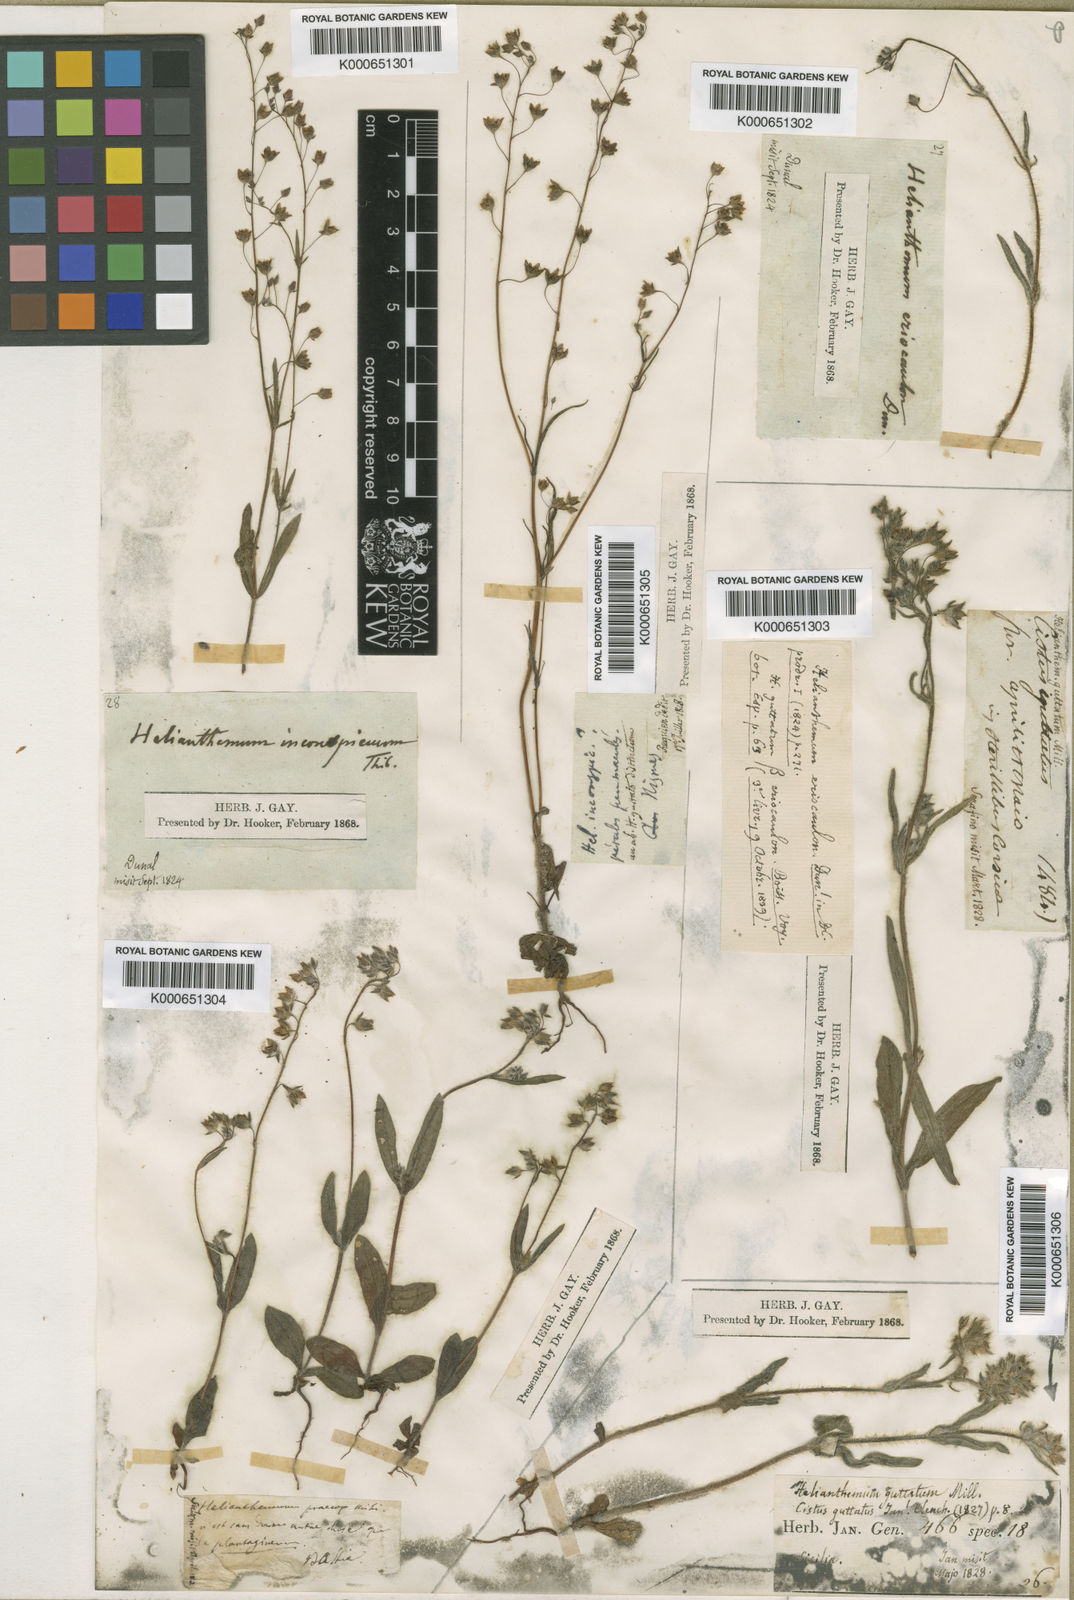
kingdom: Plantae
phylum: Tracheophyta
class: Magnoliopsida
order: Malvales
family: Cistaceae
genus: Tuberaria
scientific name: Tuberaria guttata
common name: Spotted rock-rose
